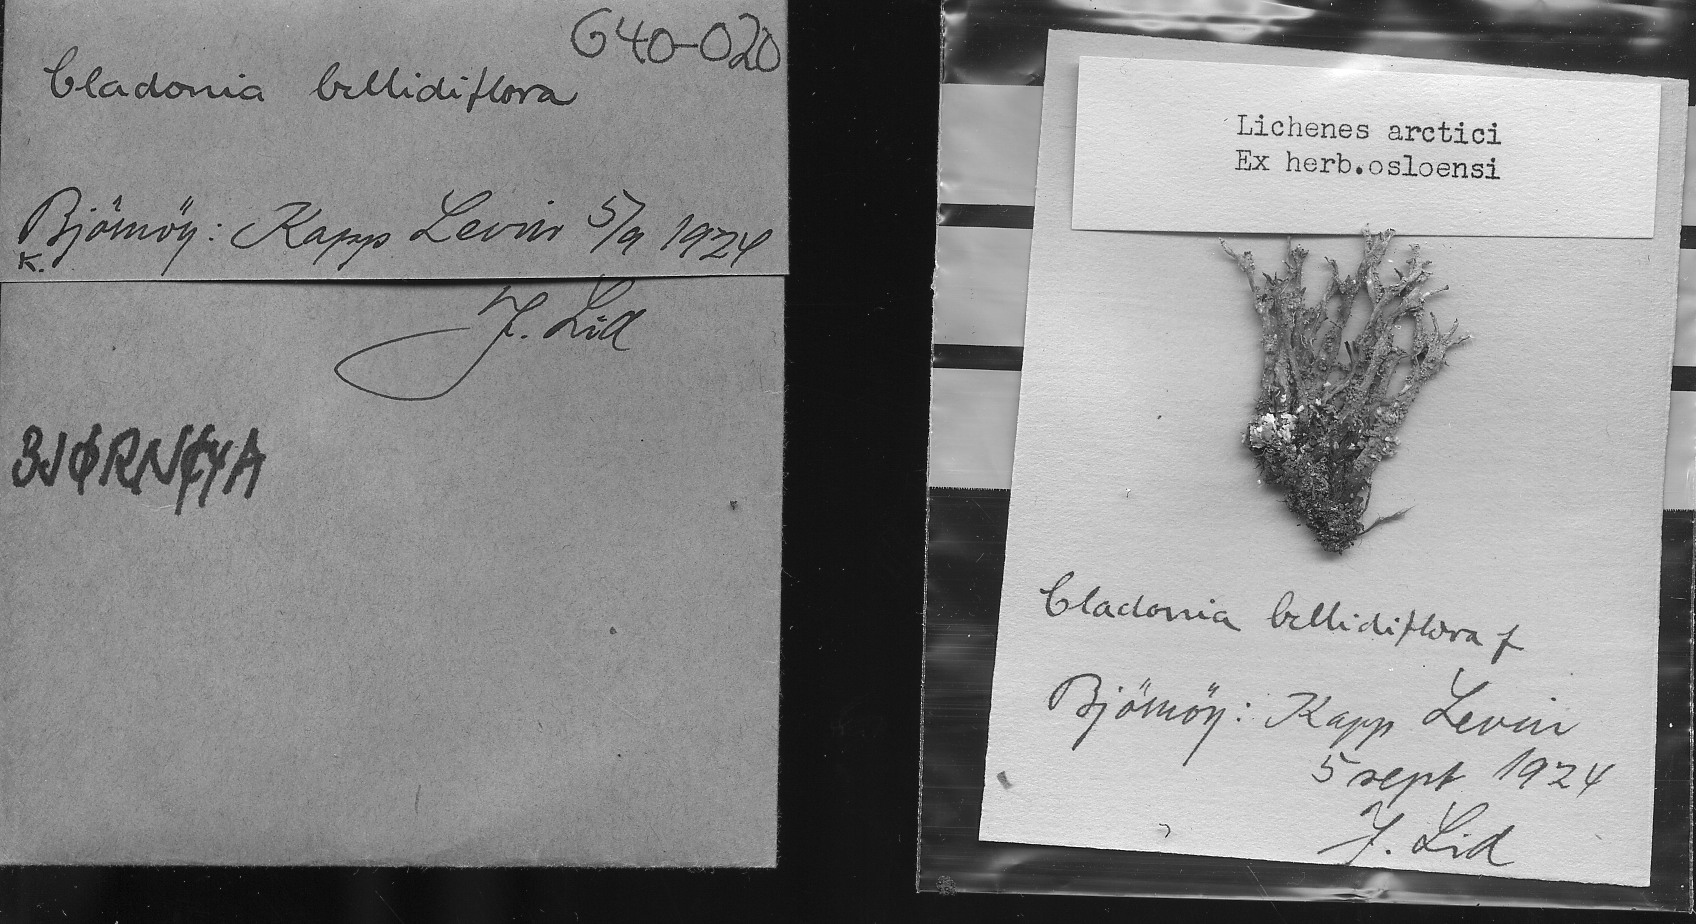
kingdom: Fungi
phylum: Ascomycota
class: Lecanoromycetes
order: Lecanorales
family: Cladoniaceae
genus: Cladonia
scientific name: Cladonia bellidiflora
